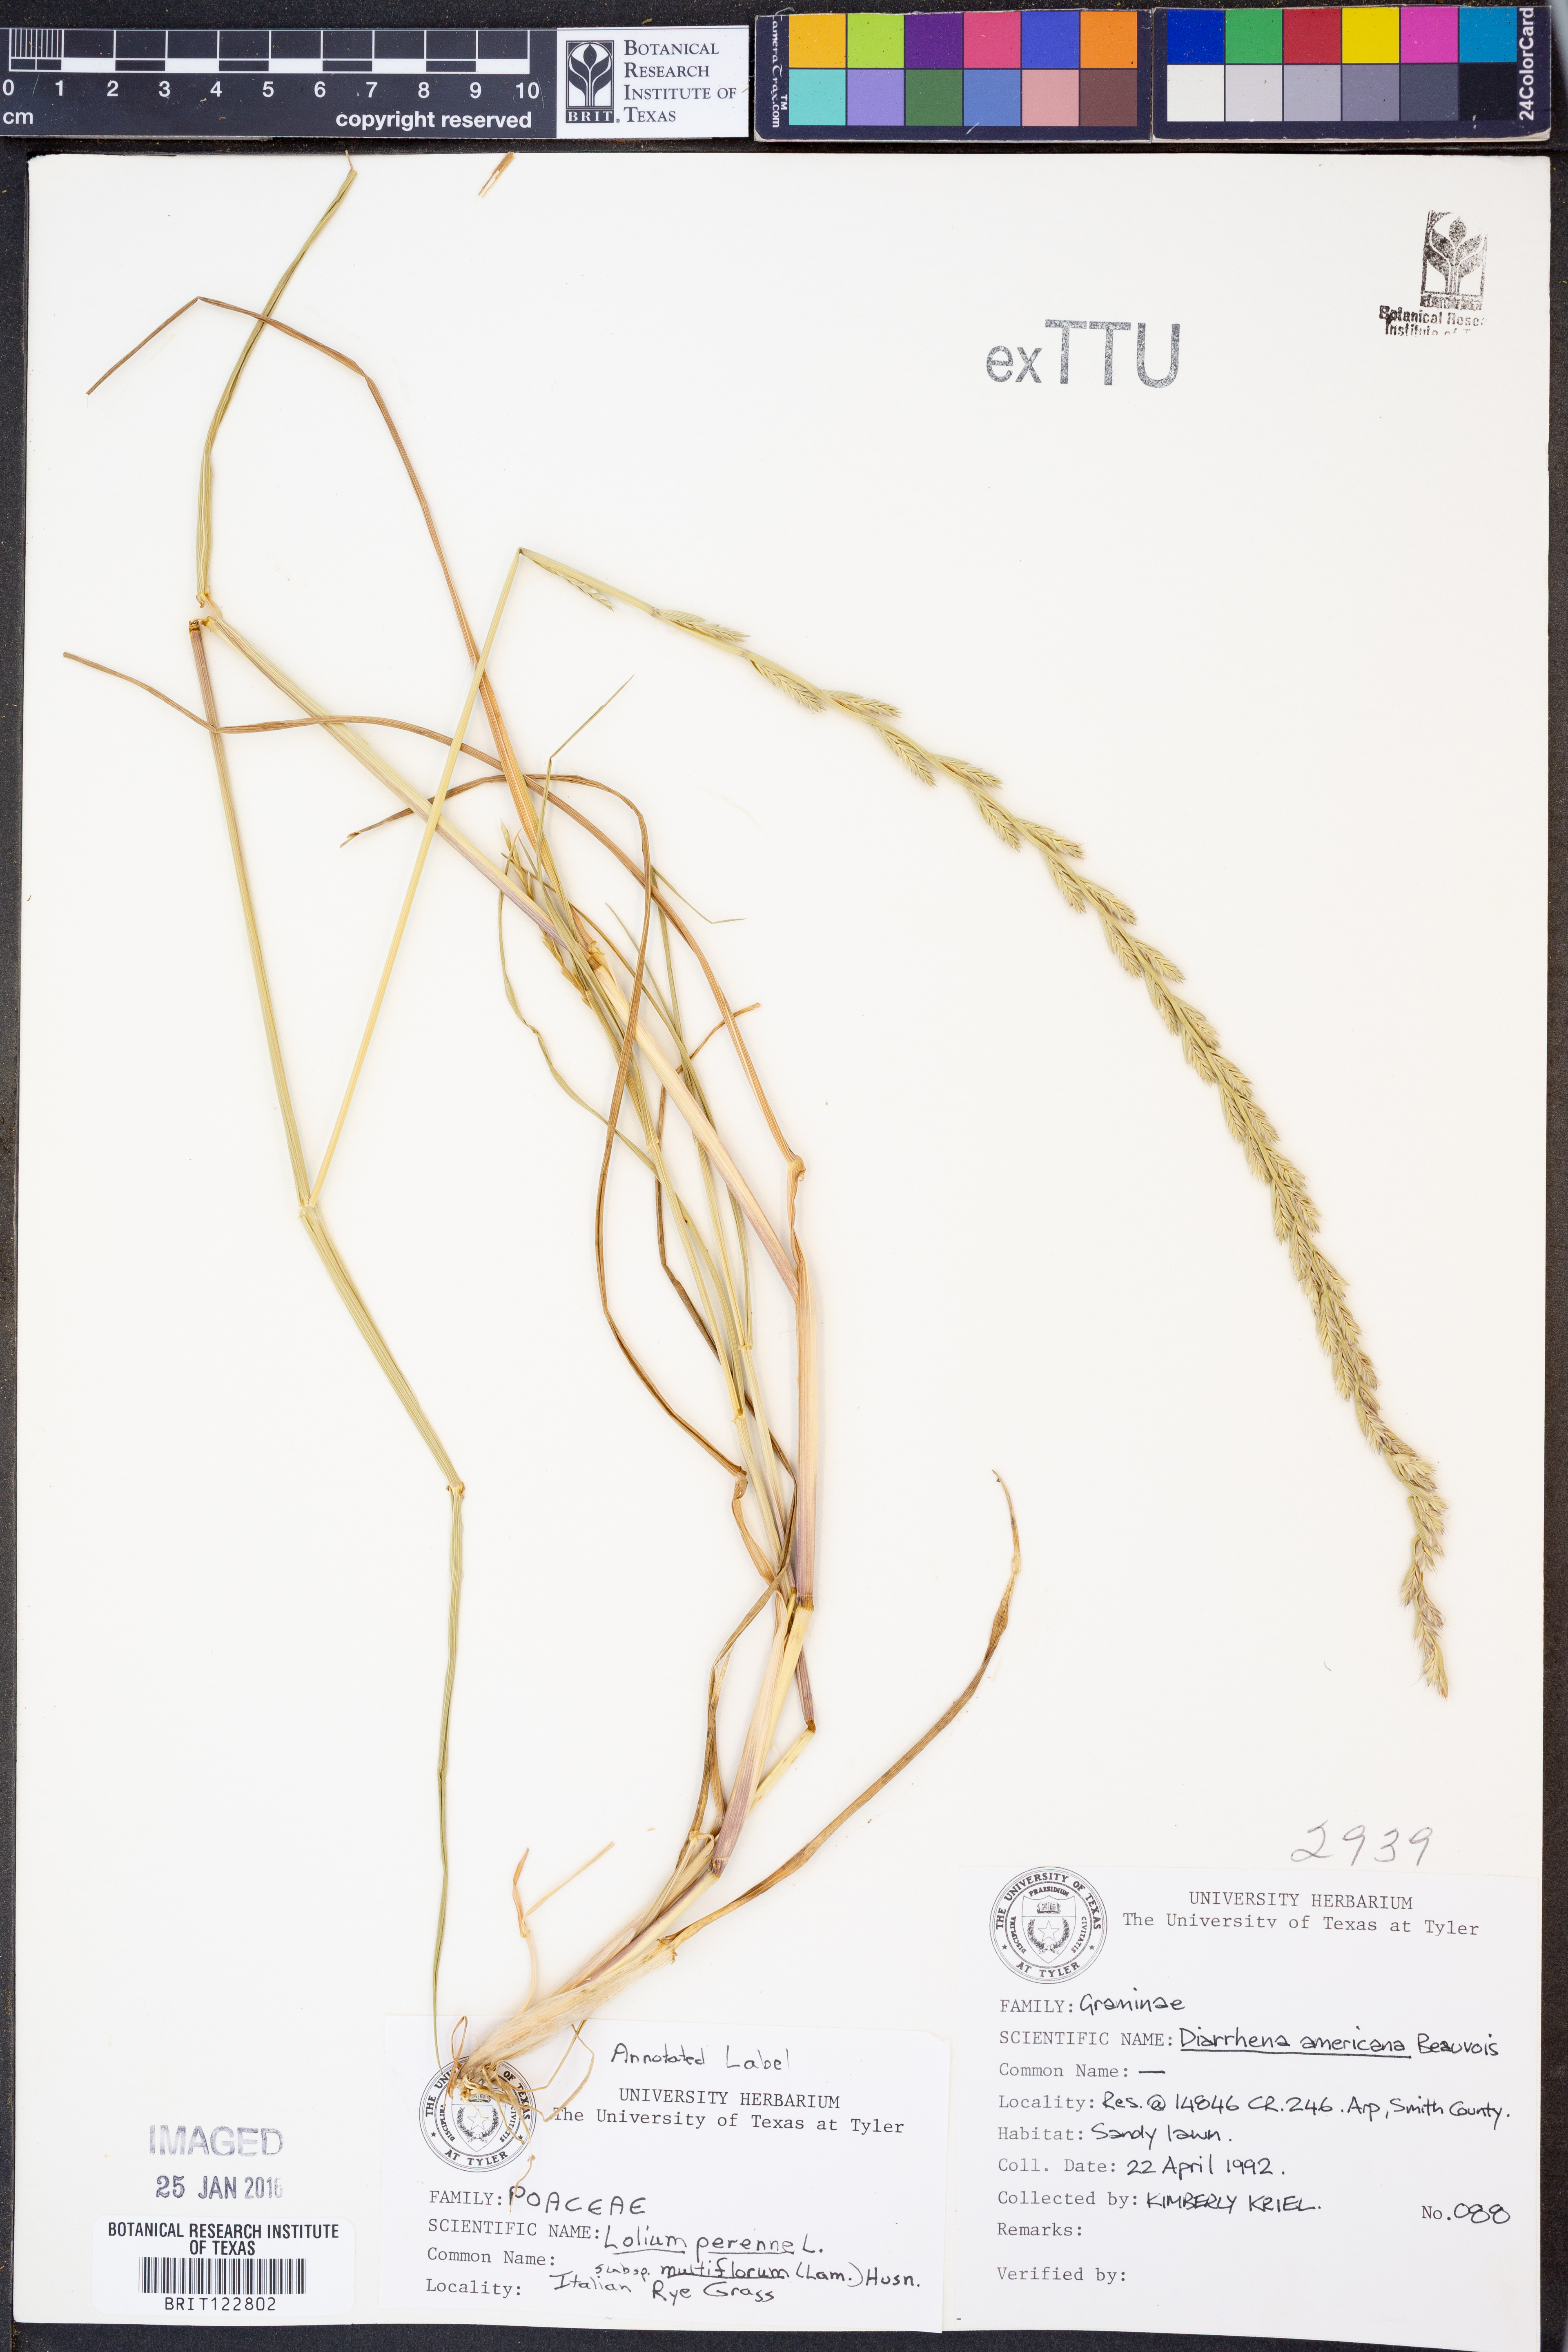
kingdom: Plantae
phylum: Tracheophyta
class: Liliopsida
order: Poales
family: Poaceae
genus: Lolium
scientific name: Lolium multiflorum
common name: Annual ryegrass
